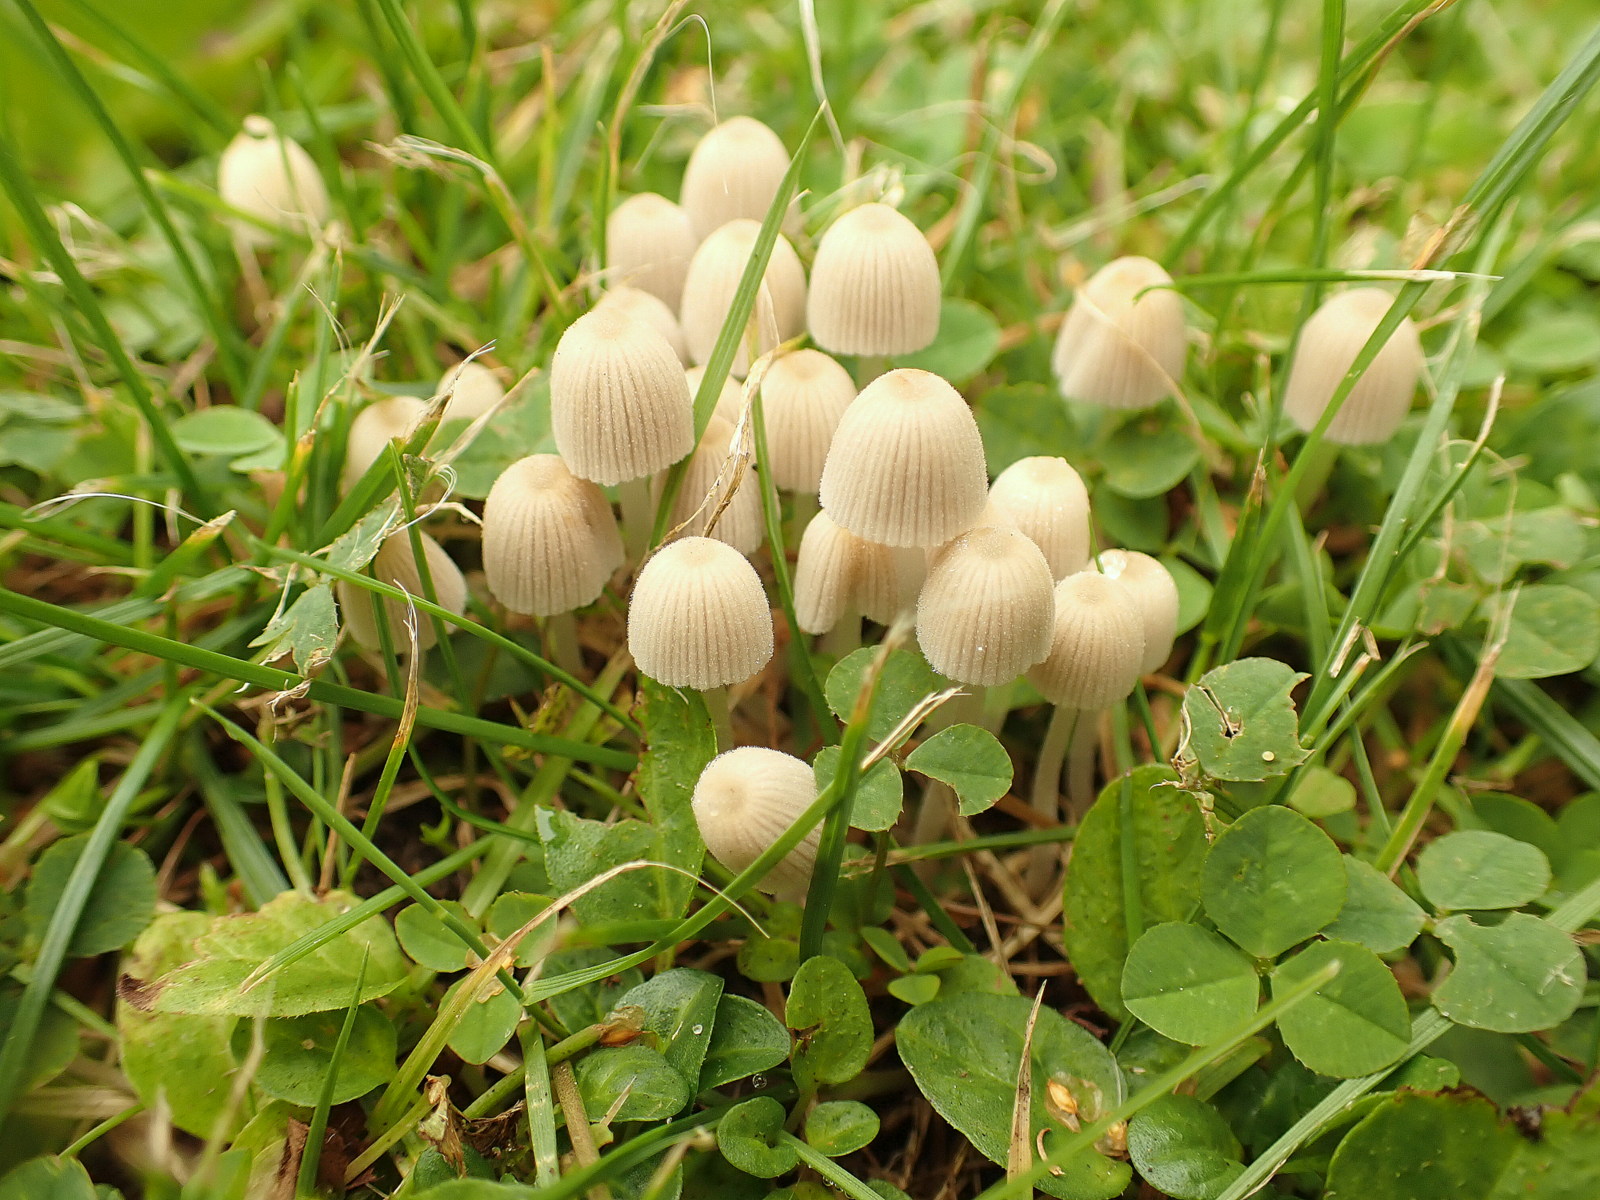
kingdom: Fungi
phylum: Basidiomycota
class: Agaricomycetes
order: Agaricales
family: Psathyrellaceae
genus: Coprinellus
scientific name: Coprinellus disseminatus
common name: bredsået blækhat
